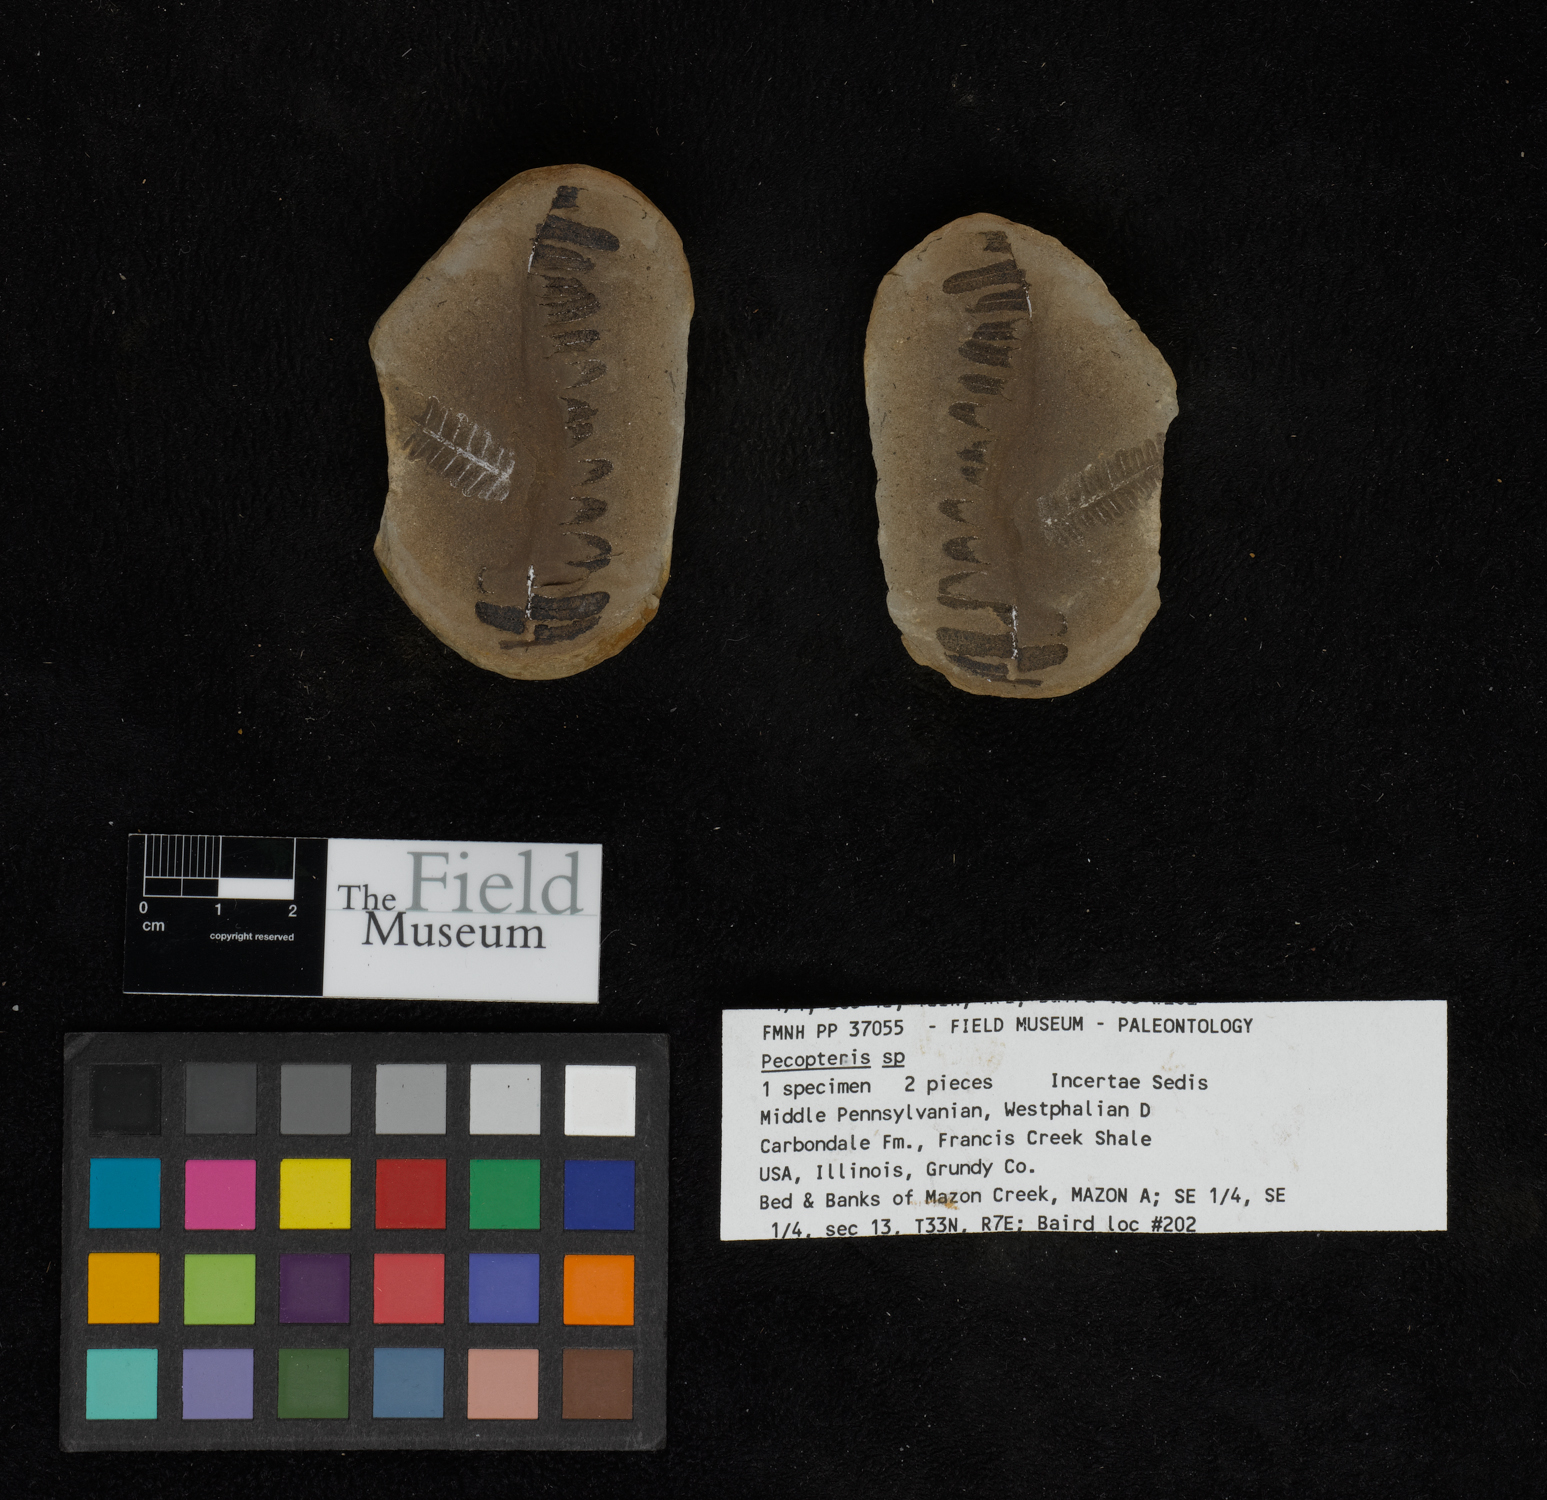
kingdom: Plantae
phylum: Tracheophyta
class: Polypodiopsida
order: Marattiales
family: Asterothecaceae
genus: Pecopteris
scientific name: Pecopteris
